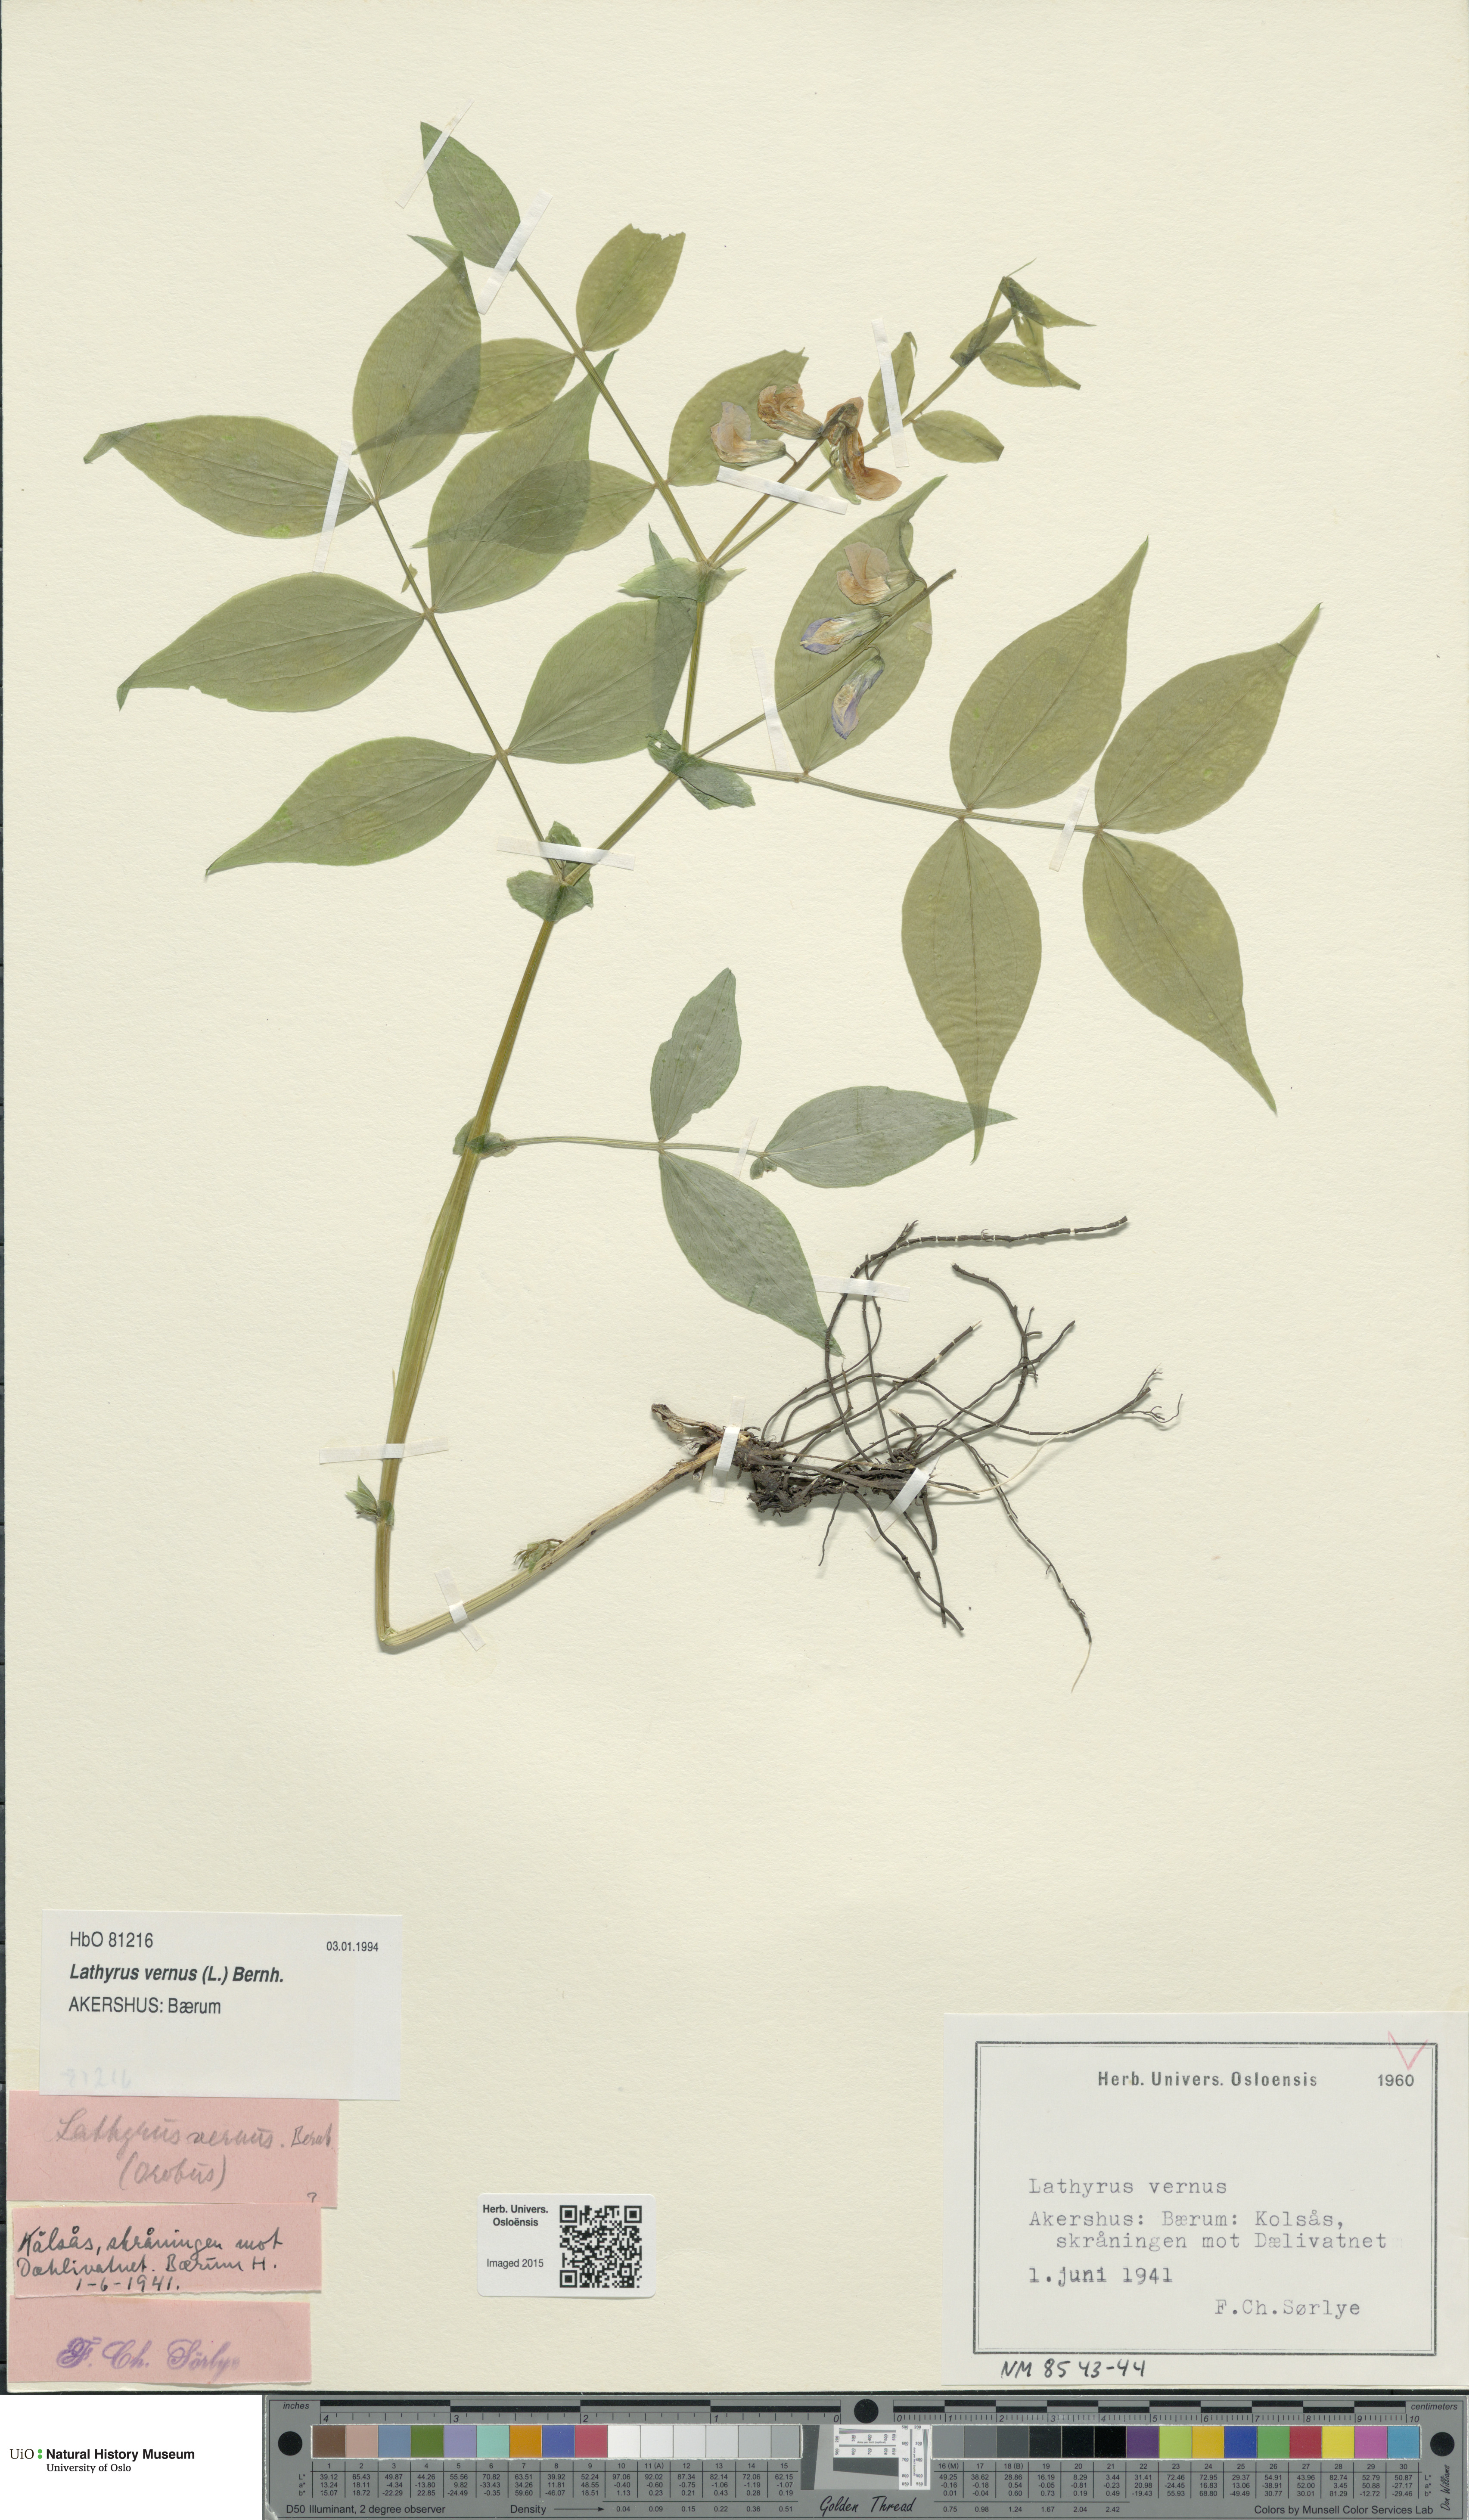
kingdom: Plantae
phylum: Tracheophyta
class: Magnoliopsida
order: Fabales
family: Fabaceae
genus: Lathyrus
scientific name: Lathyrus vernus
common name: Spring pea
